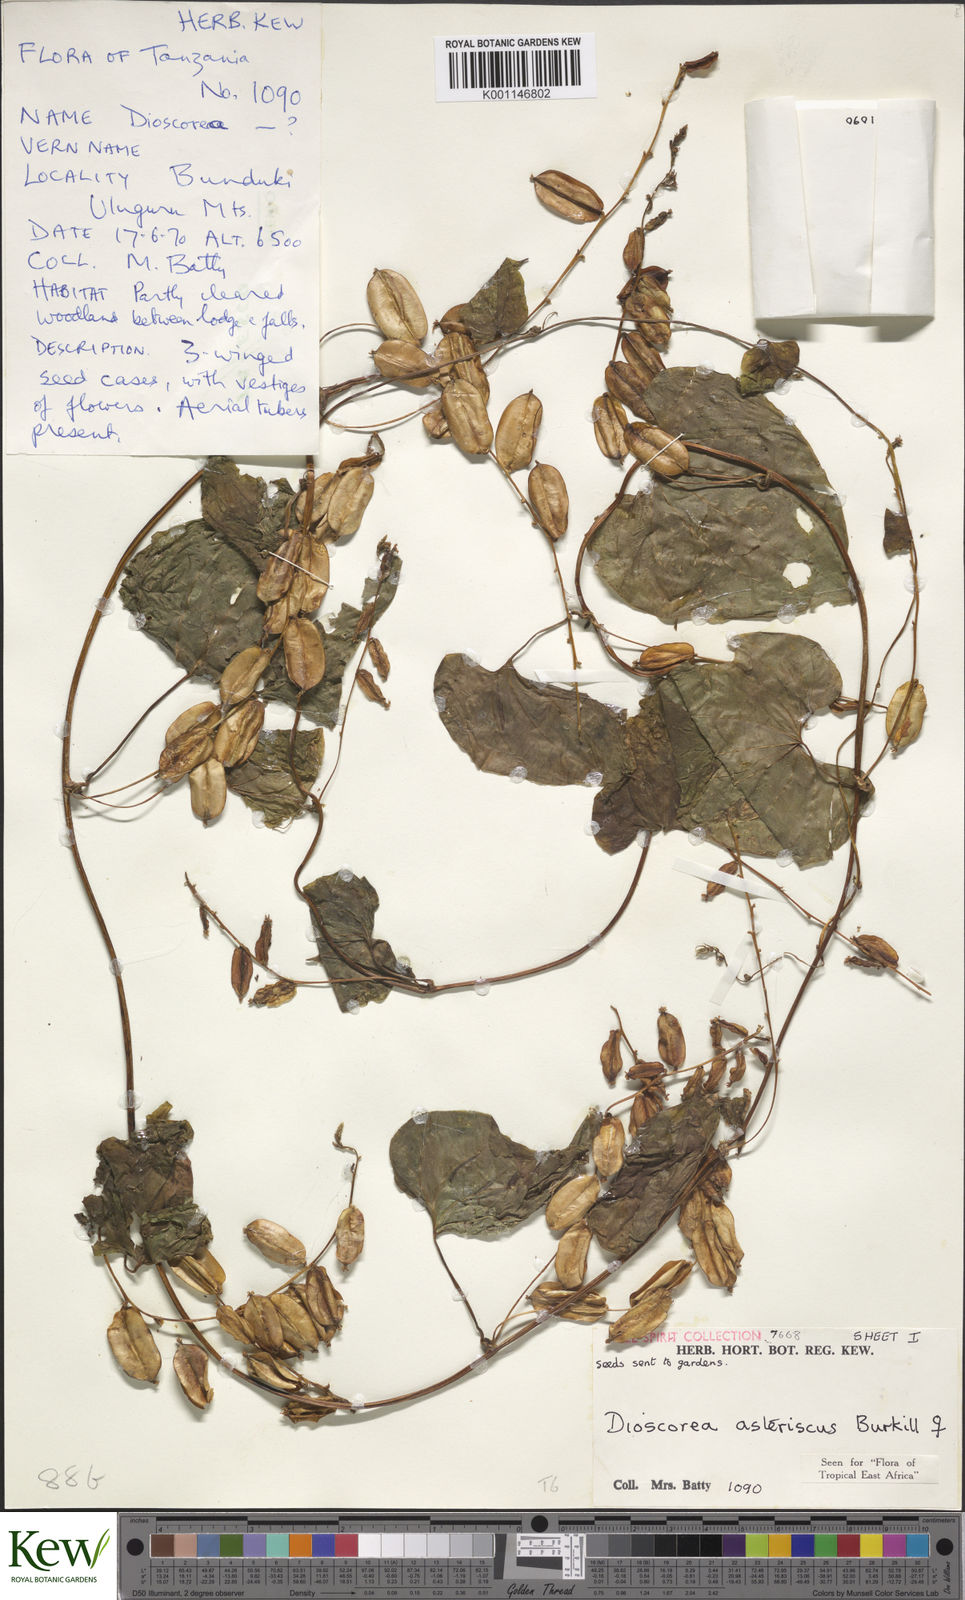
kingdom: Plantae
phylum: Tracheophyta
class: Liliopsida
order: Dioscoreales
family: Dioscoreaceae
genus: Dioscorea
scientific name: Dioscorea asteriscus
